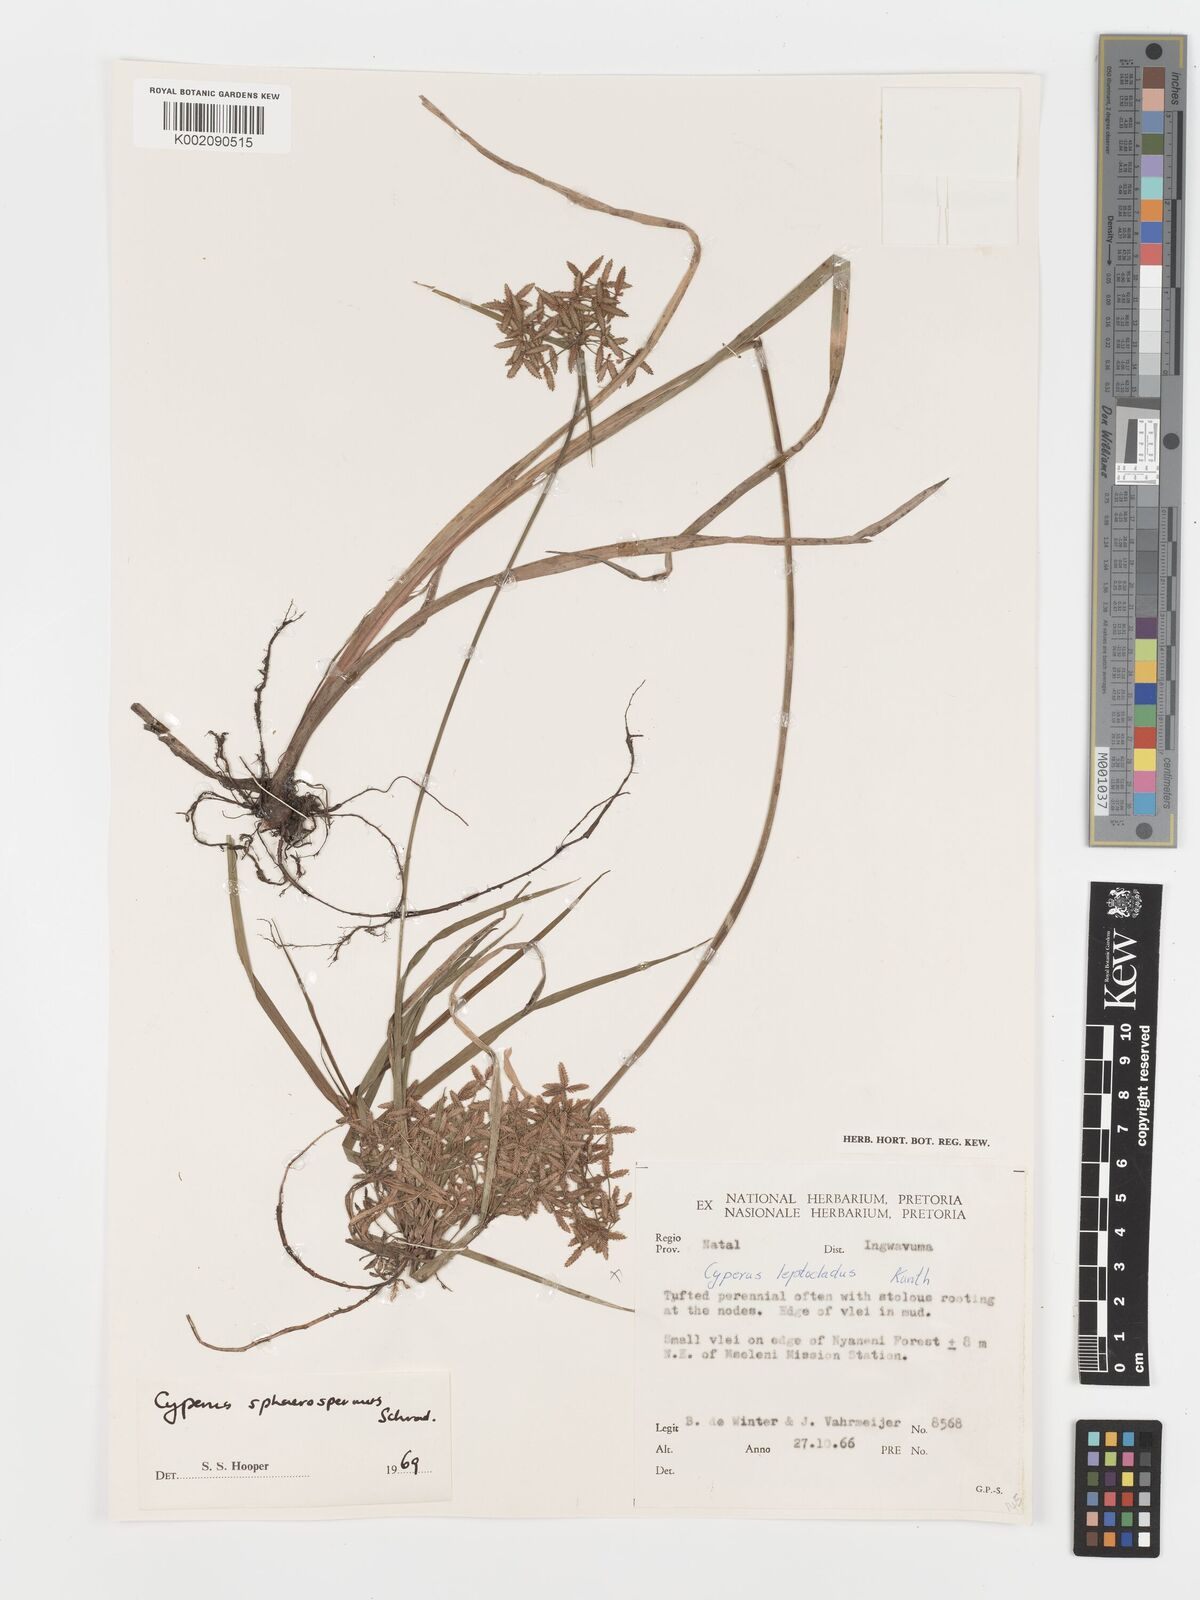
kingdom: Plantae
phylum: Tracheophyta
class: Liliopsida
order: Poales
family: Cyperaceae
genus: Cyperus
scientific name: Cyperus sphaerospermus
